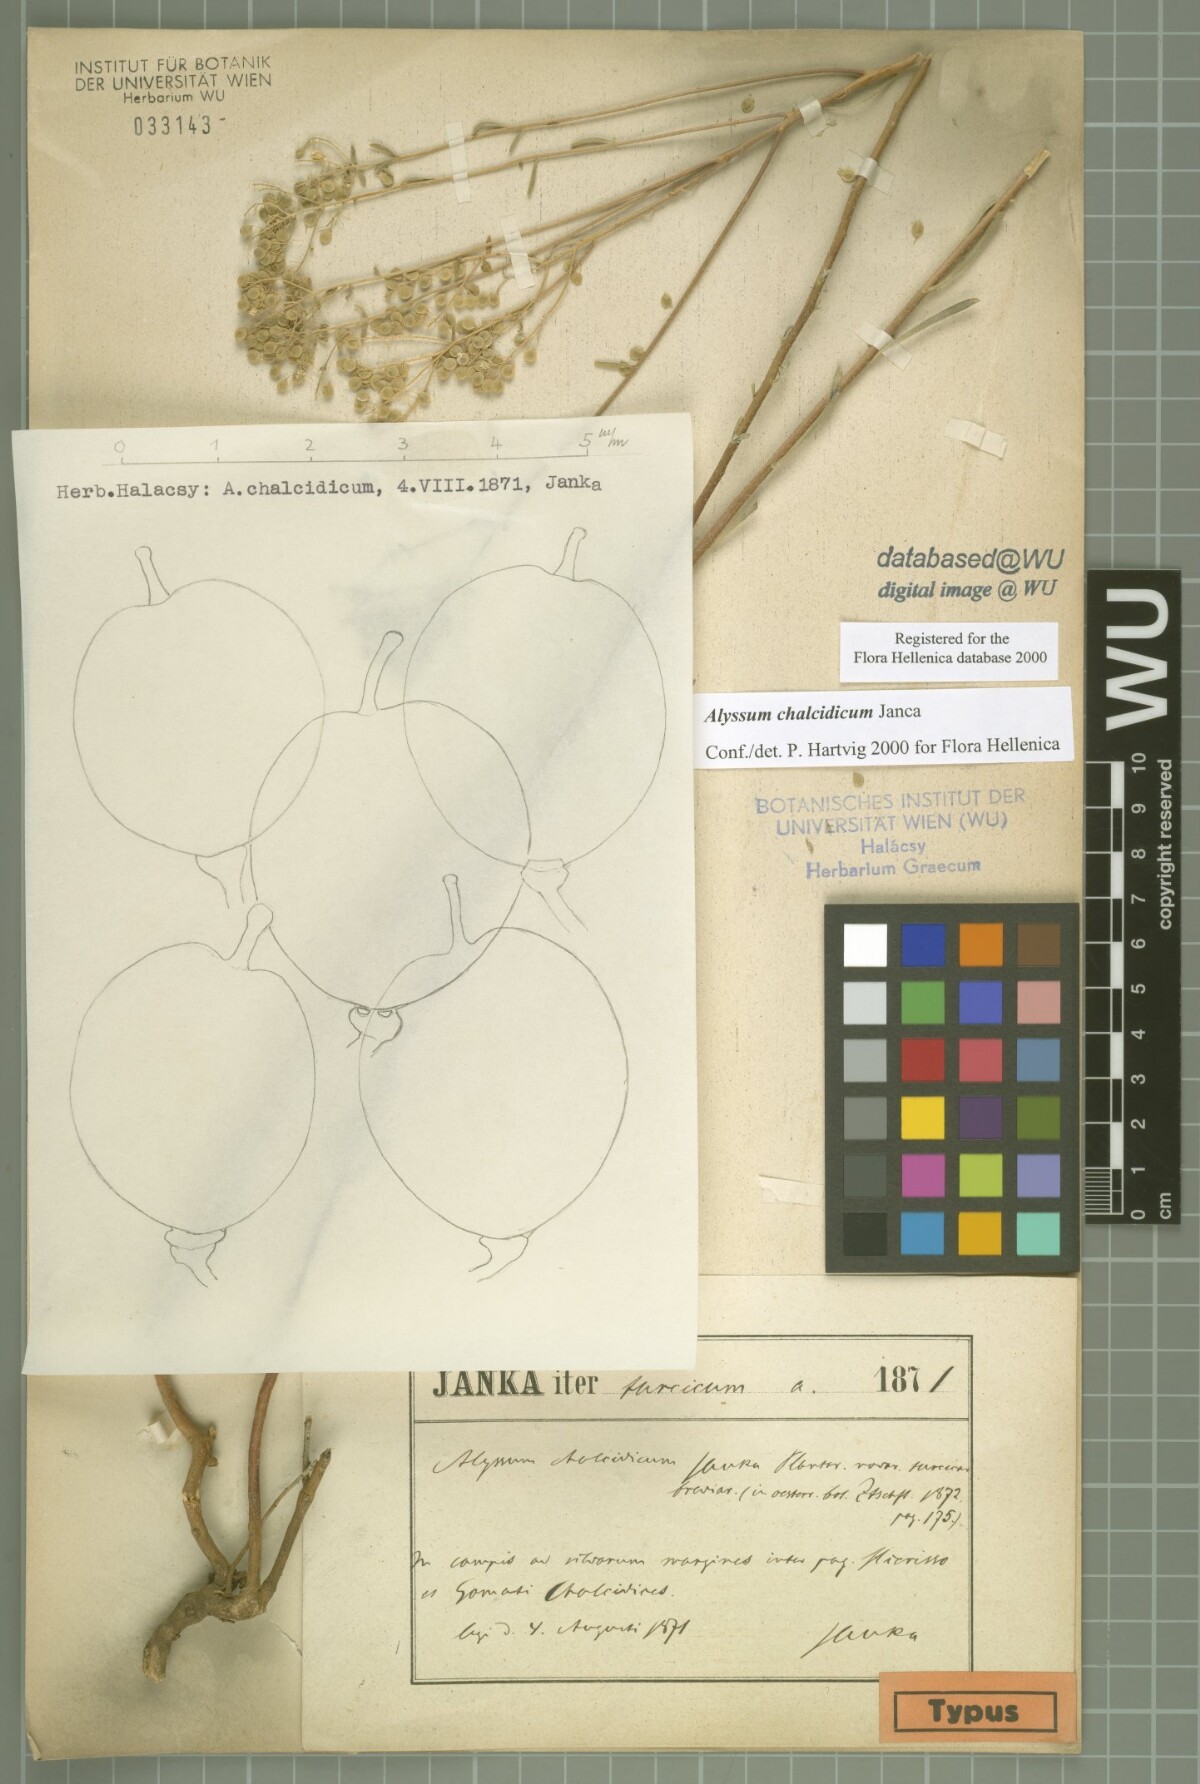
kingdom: Plantae
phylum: Tracheophyta
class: Magnoliopsida
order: Brassicales
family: Brassicaceae
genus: Odontarrhena
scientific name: Odontarrhena chalcidica
